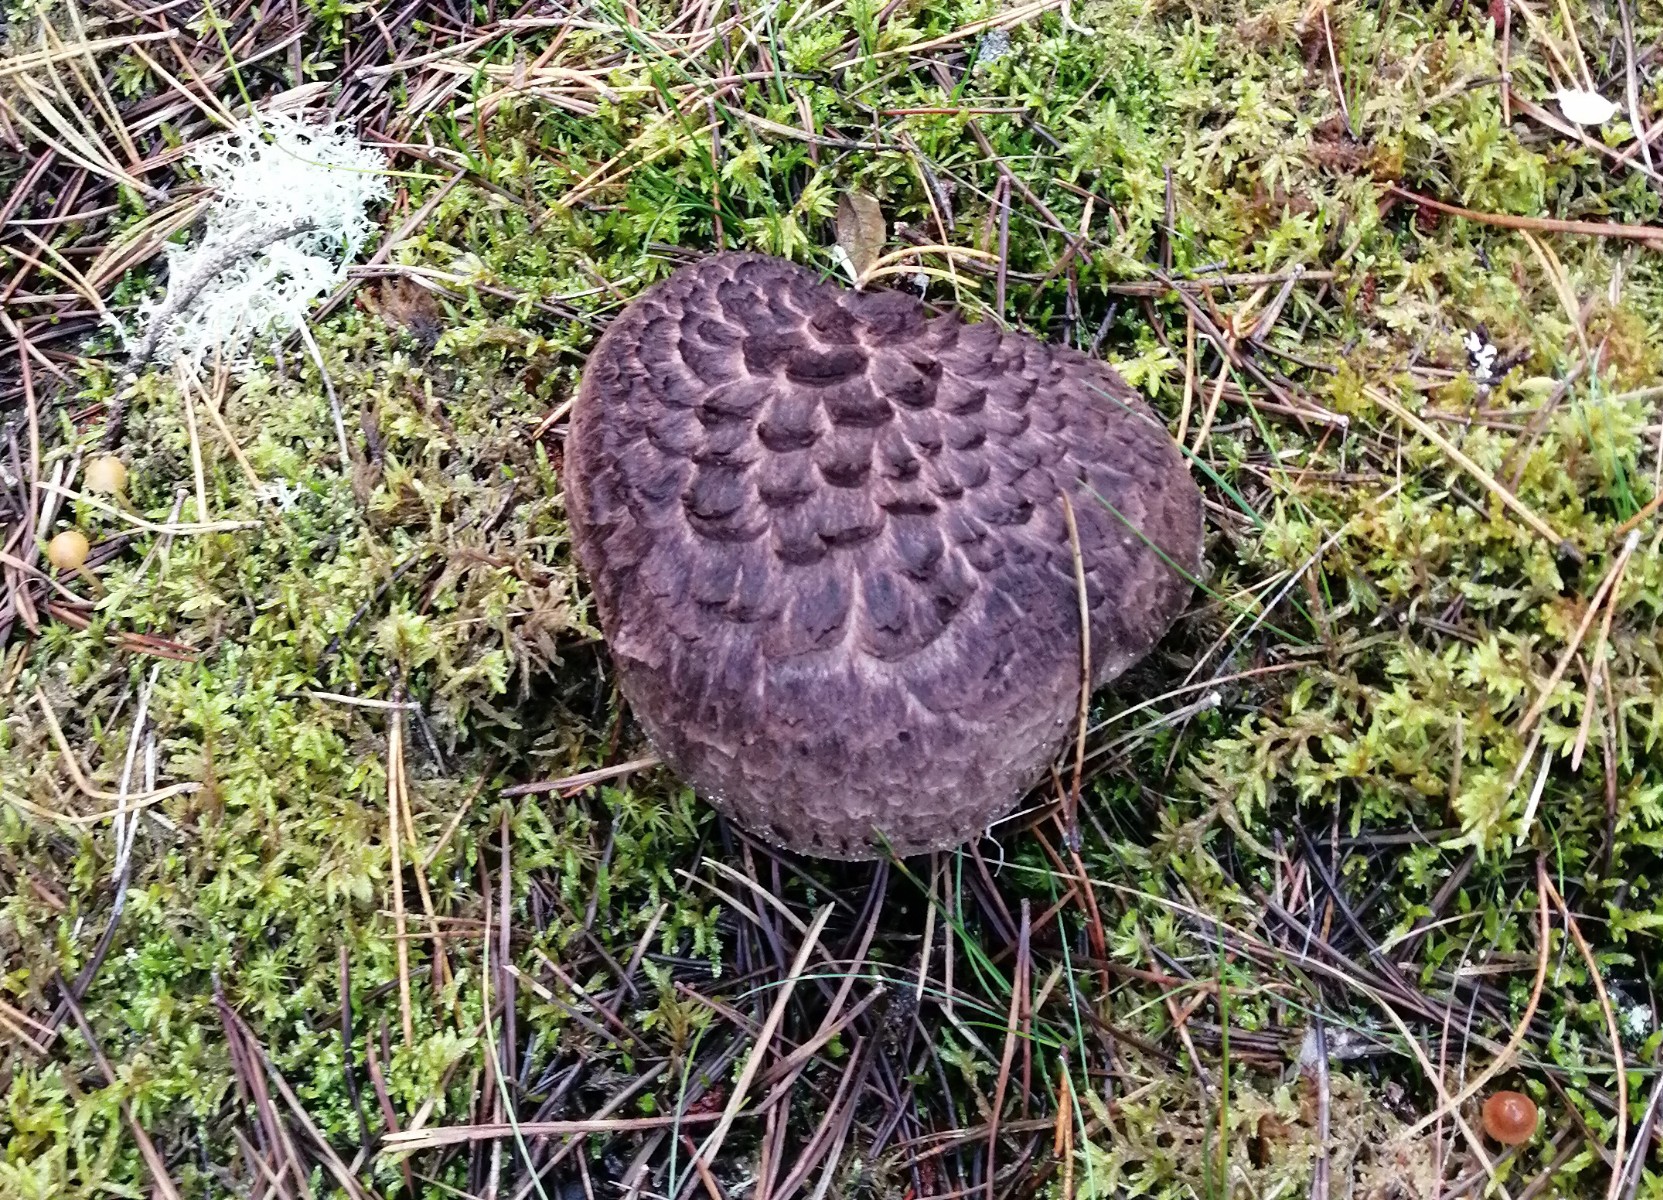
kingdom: Fungi
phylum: Basidiomycota
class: Agaricomycetes
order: Thelephorales
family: Bankeraceae
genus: Sarcodon
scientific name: Sarcodon squamosus
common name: småskællet kødpigsvamp
